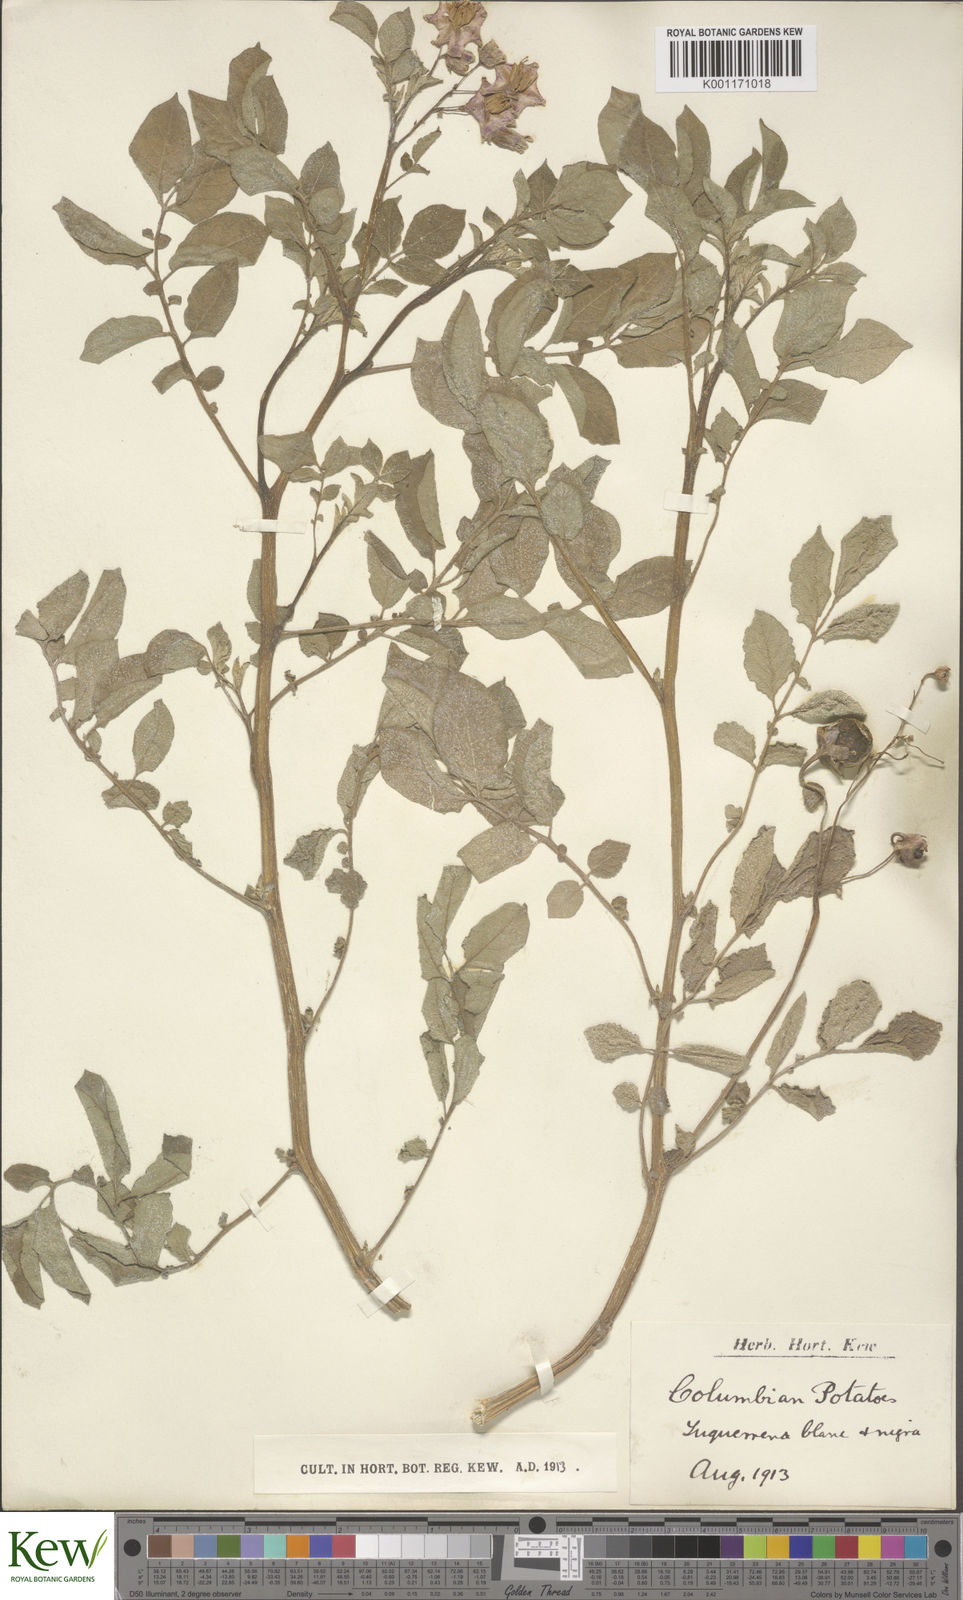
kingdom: Plantae
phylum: Tracheophyta
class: Magnoliopsida
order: Solanales
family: Solanaceae
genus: Solanum
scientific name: Solanum
